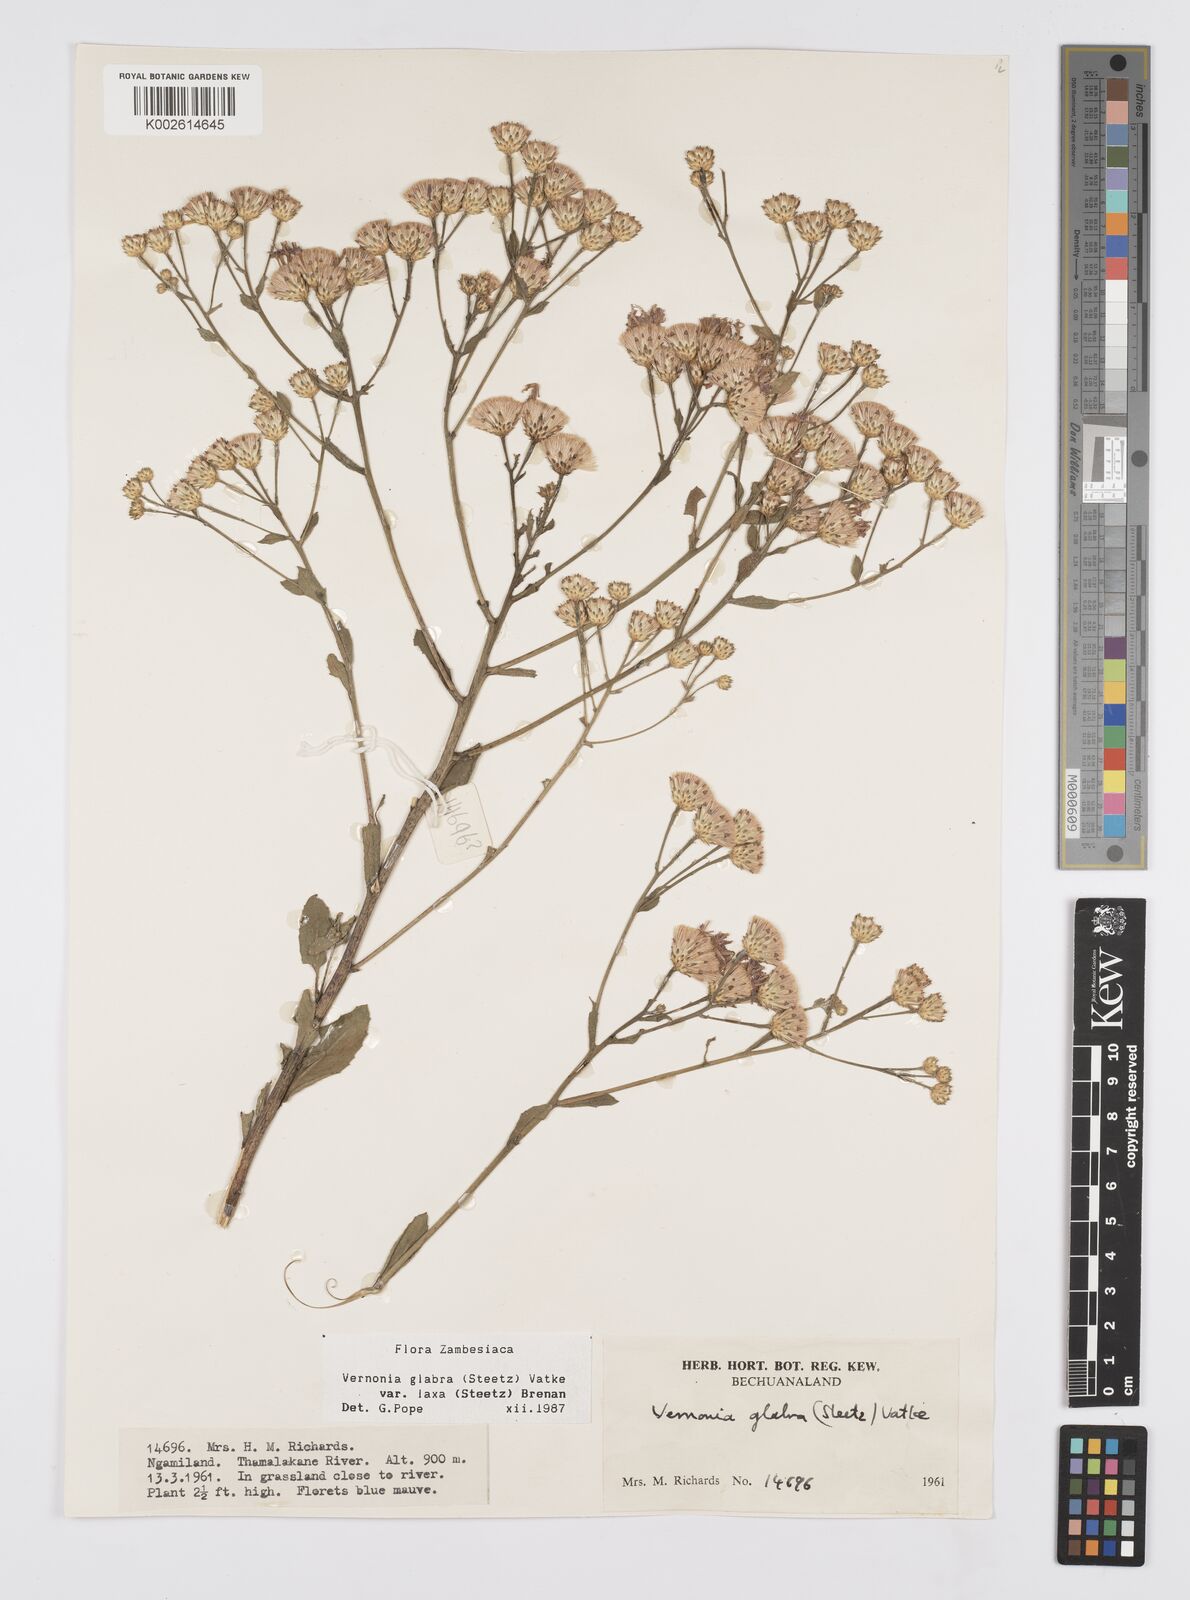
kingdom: Plantae
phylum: Tracheophyta
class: Magnoliopsida
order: Asterales
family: Asteraceae
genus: Linzia
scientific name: Linzia glabra
